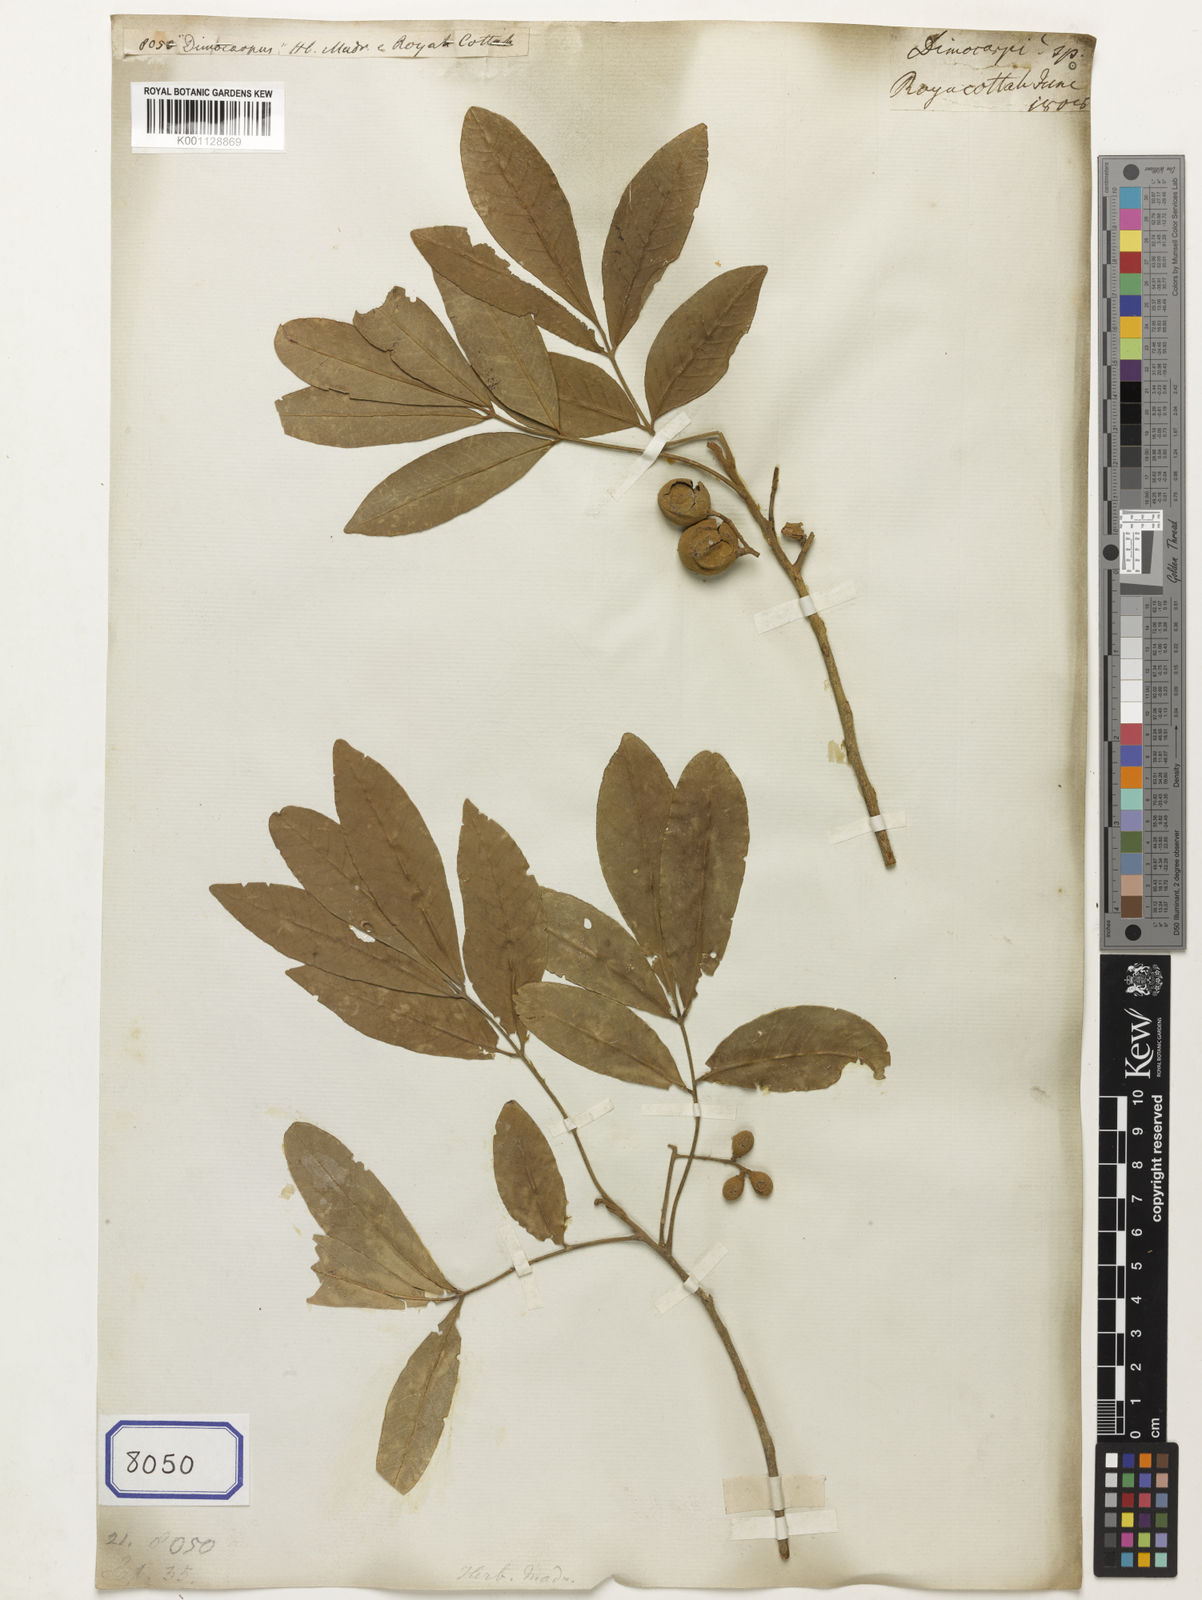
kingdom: Plantae
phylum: Tracheophyta
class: Magnoliopsida
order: Sapindales
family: Sapindaceae
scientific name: Sapindaceae
